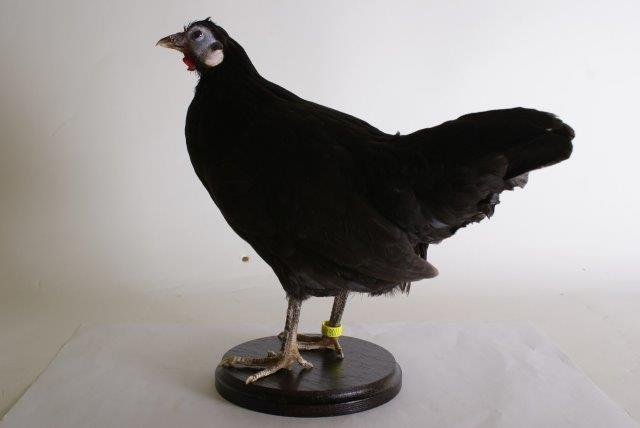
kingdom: Animalia
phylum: Chordata
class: Aves
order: Galliformes
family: Phasianidae
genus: Gallus
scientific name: Gallus gallus
